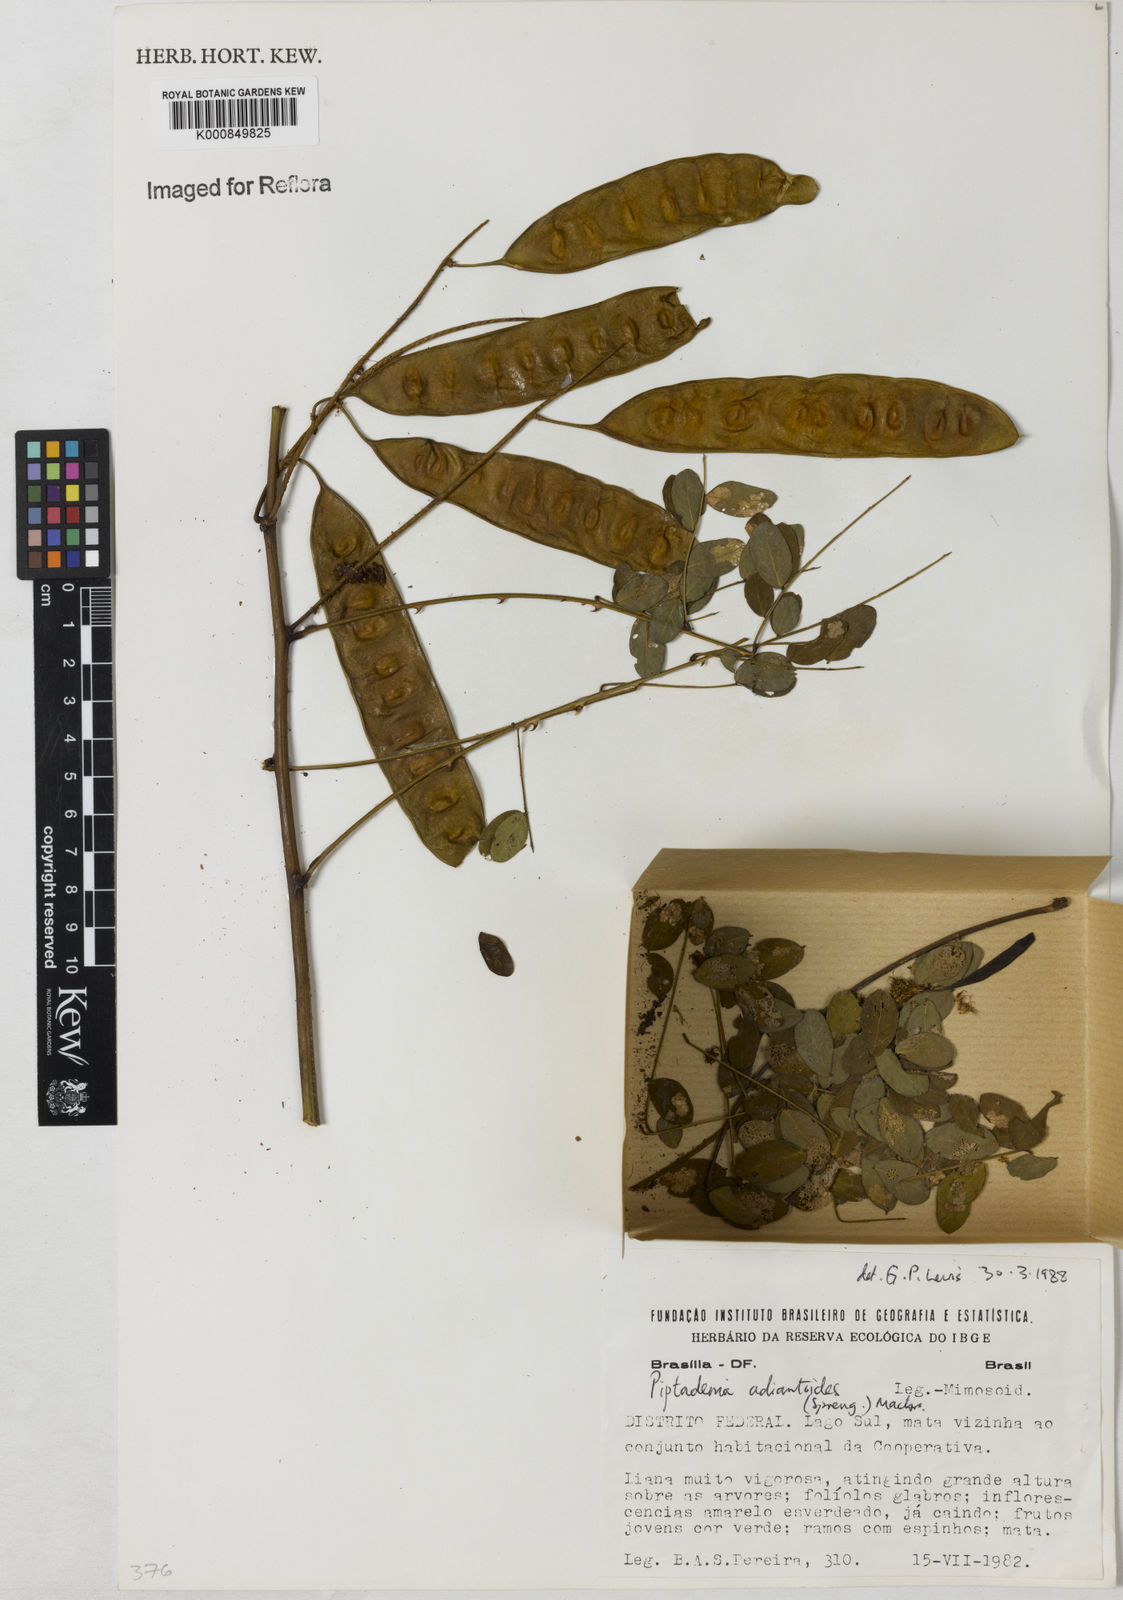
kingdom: Plantae
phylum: Tracheophyta
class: Magnoliopsida
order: Fabales
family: Fabaceae
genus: Piptadenia
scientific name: Piptadenia adiantoides
